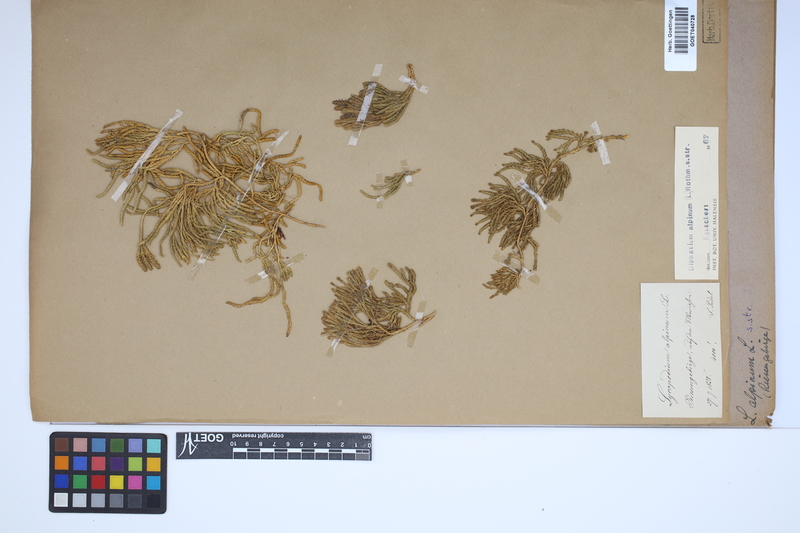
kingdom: Plantae
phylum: Tracheophyta
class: Lycopodiopsida
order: Lycopodiales
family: Lycopodiaceae
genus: Diphasiastrum
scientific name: Diphasiastrum alpinum
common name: Alpine clubmoss
